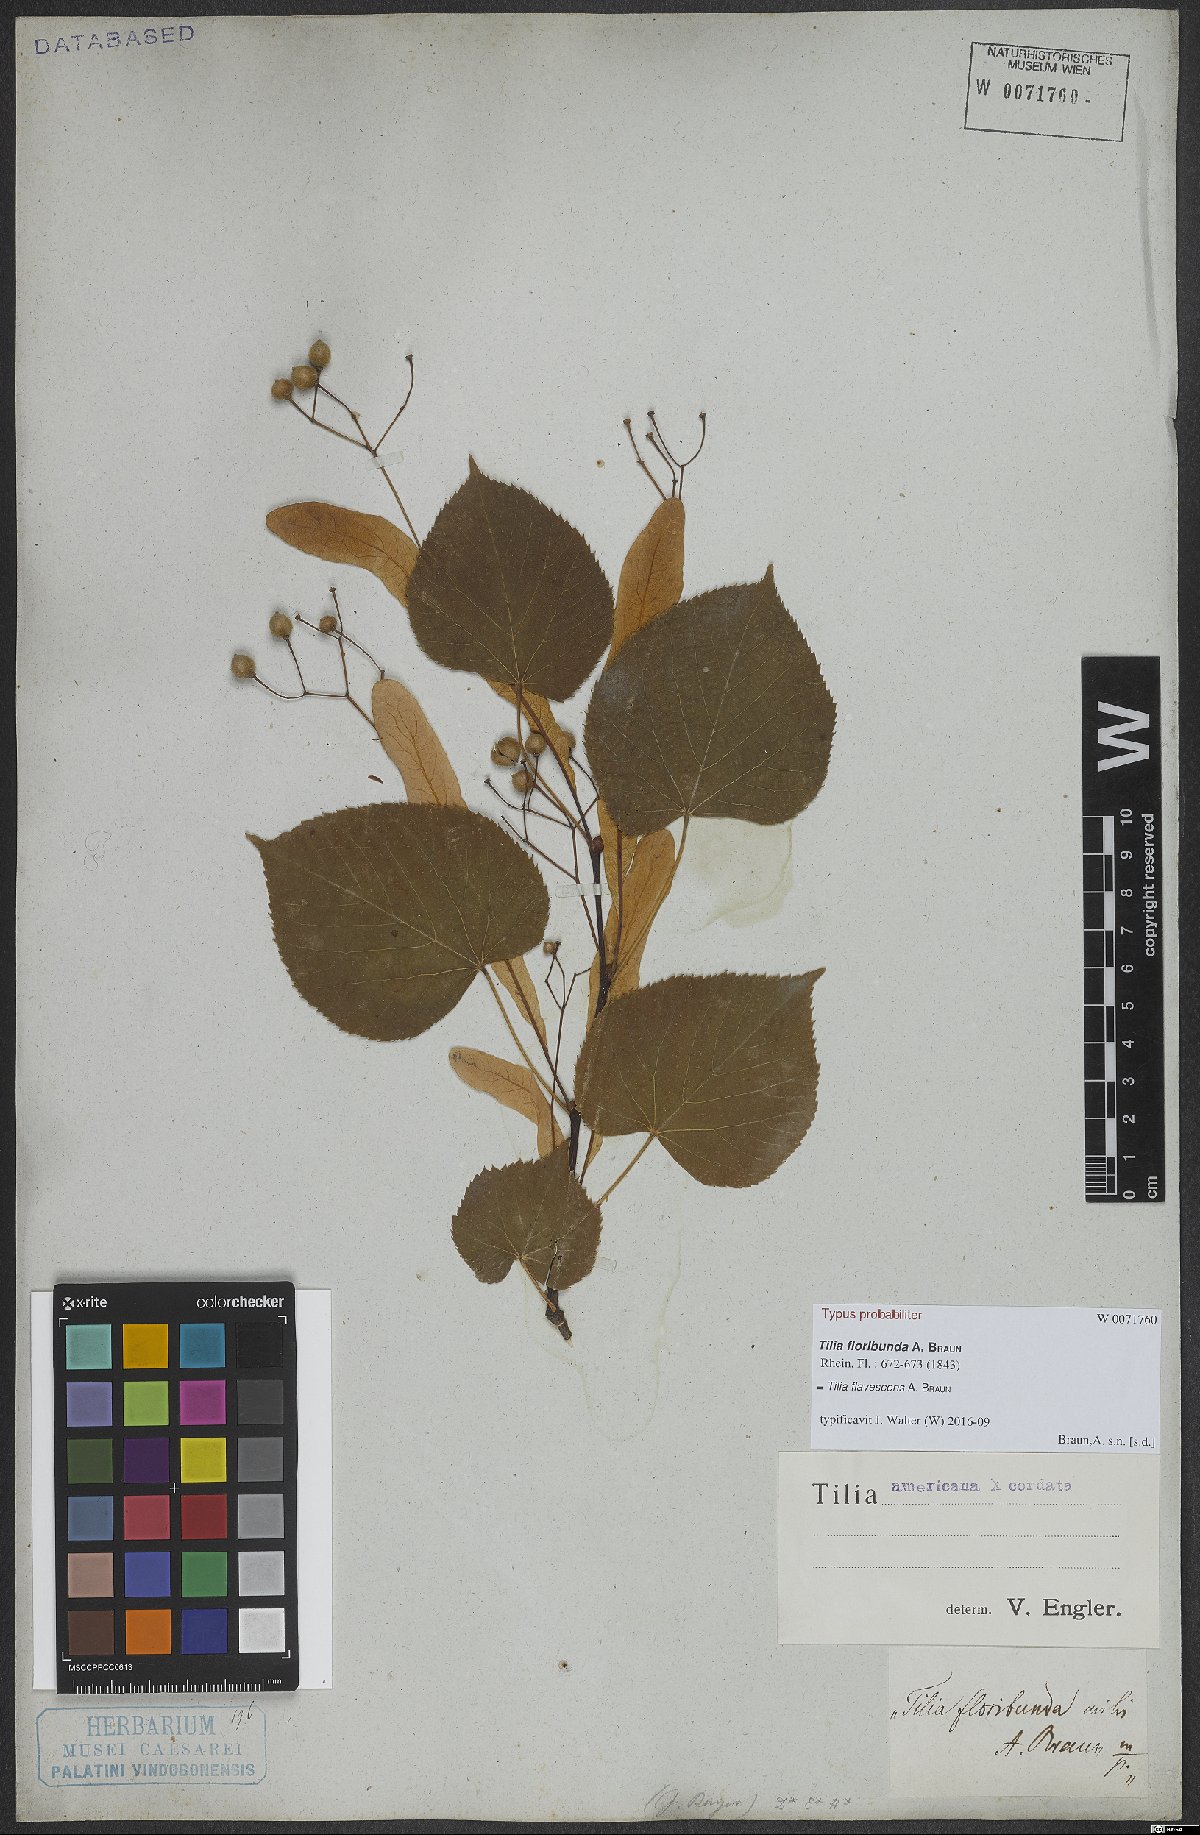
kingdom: Plantae
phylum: Tracheophyta
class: Magnoliopsida
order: Malvales
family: Tiliaceae
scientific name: Tiliaceae
